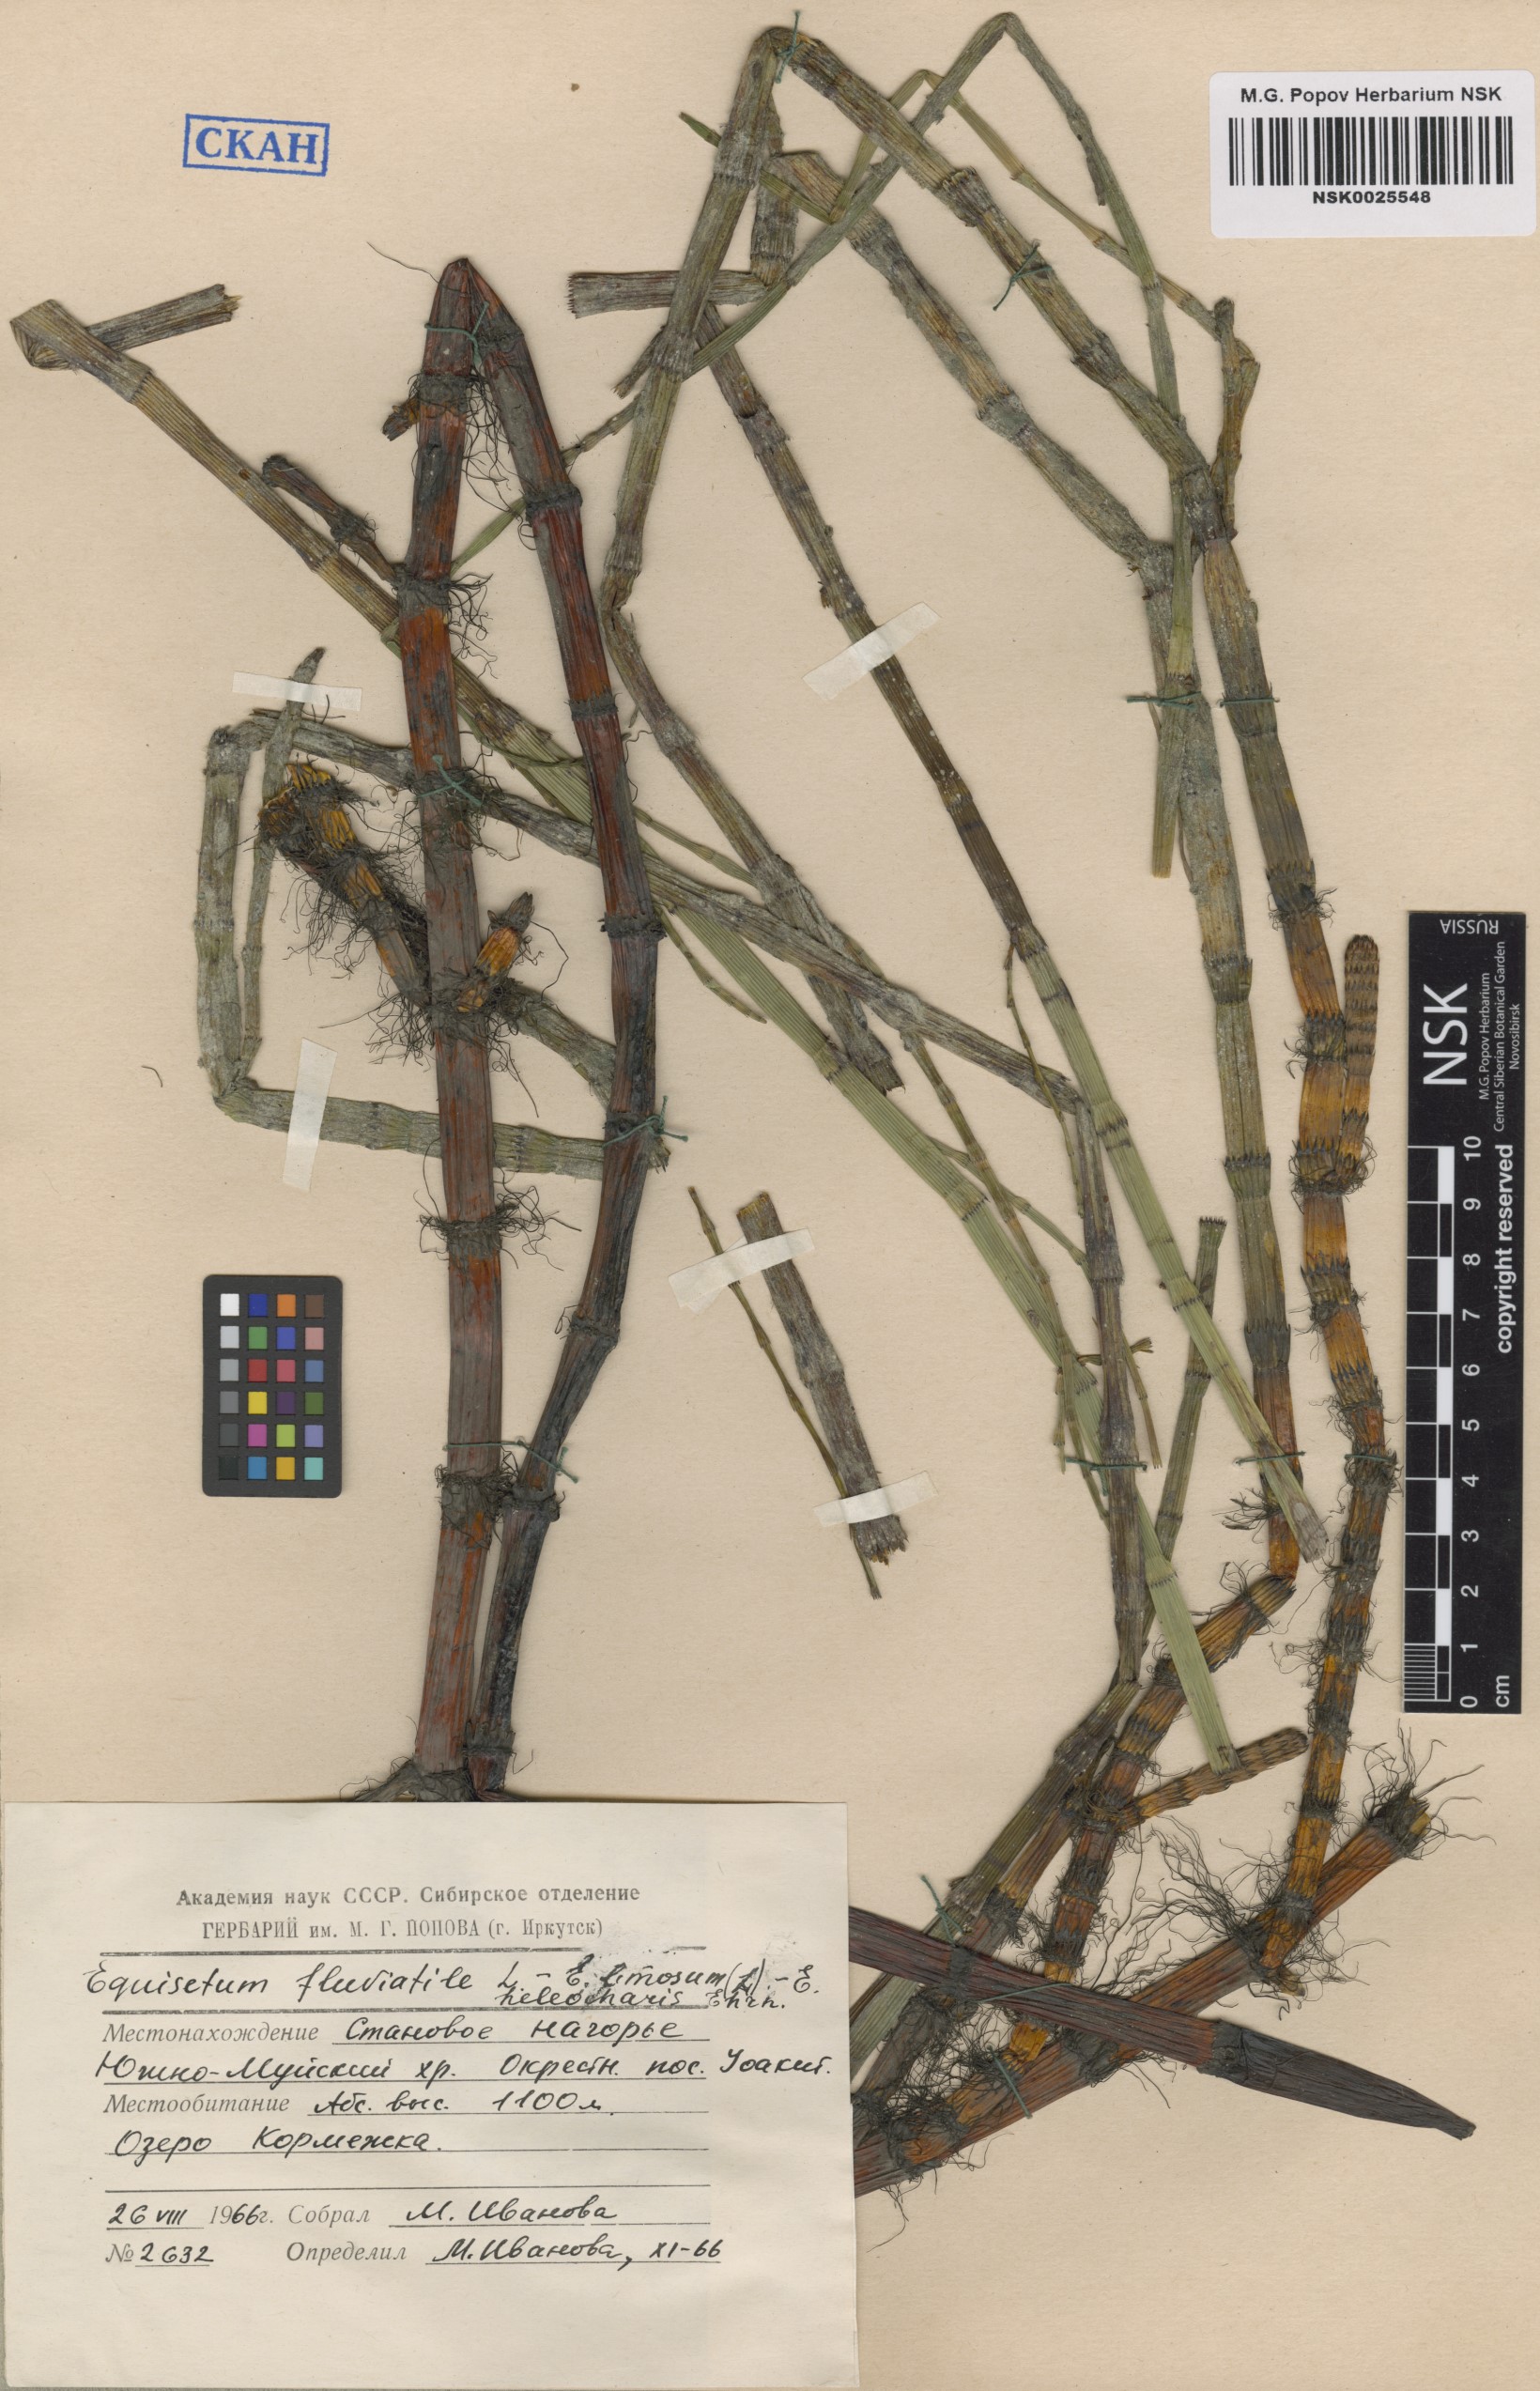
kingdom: Plantae
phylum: Tracheophyta
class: Polypodiopsida
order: Equisetales
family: Equisetaceae
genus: Equisetum
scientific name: Equisetum fluviatile
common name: Water horsetail
